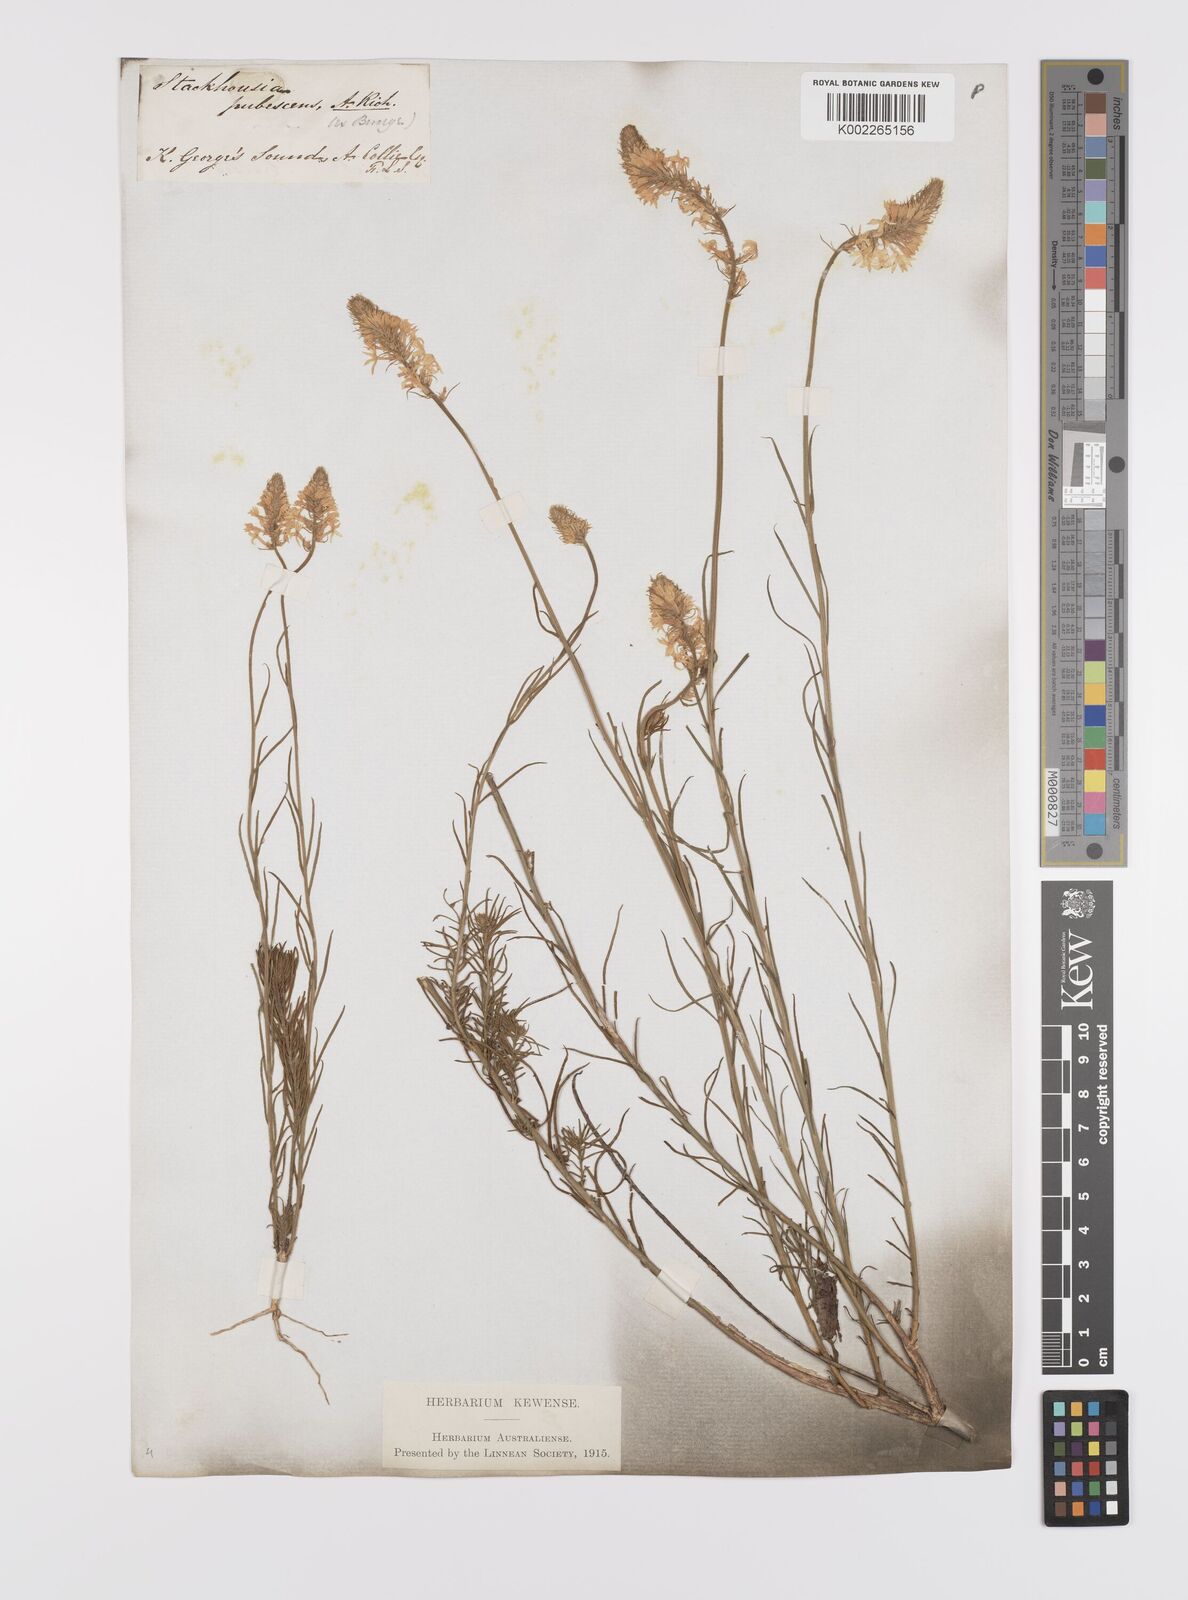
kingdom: Plantae
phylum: Tracheophyta
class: Magnoliopsida
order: Celastrales
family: Celastraceae
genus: Stackhousia
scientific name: Stackhousia monogyna
